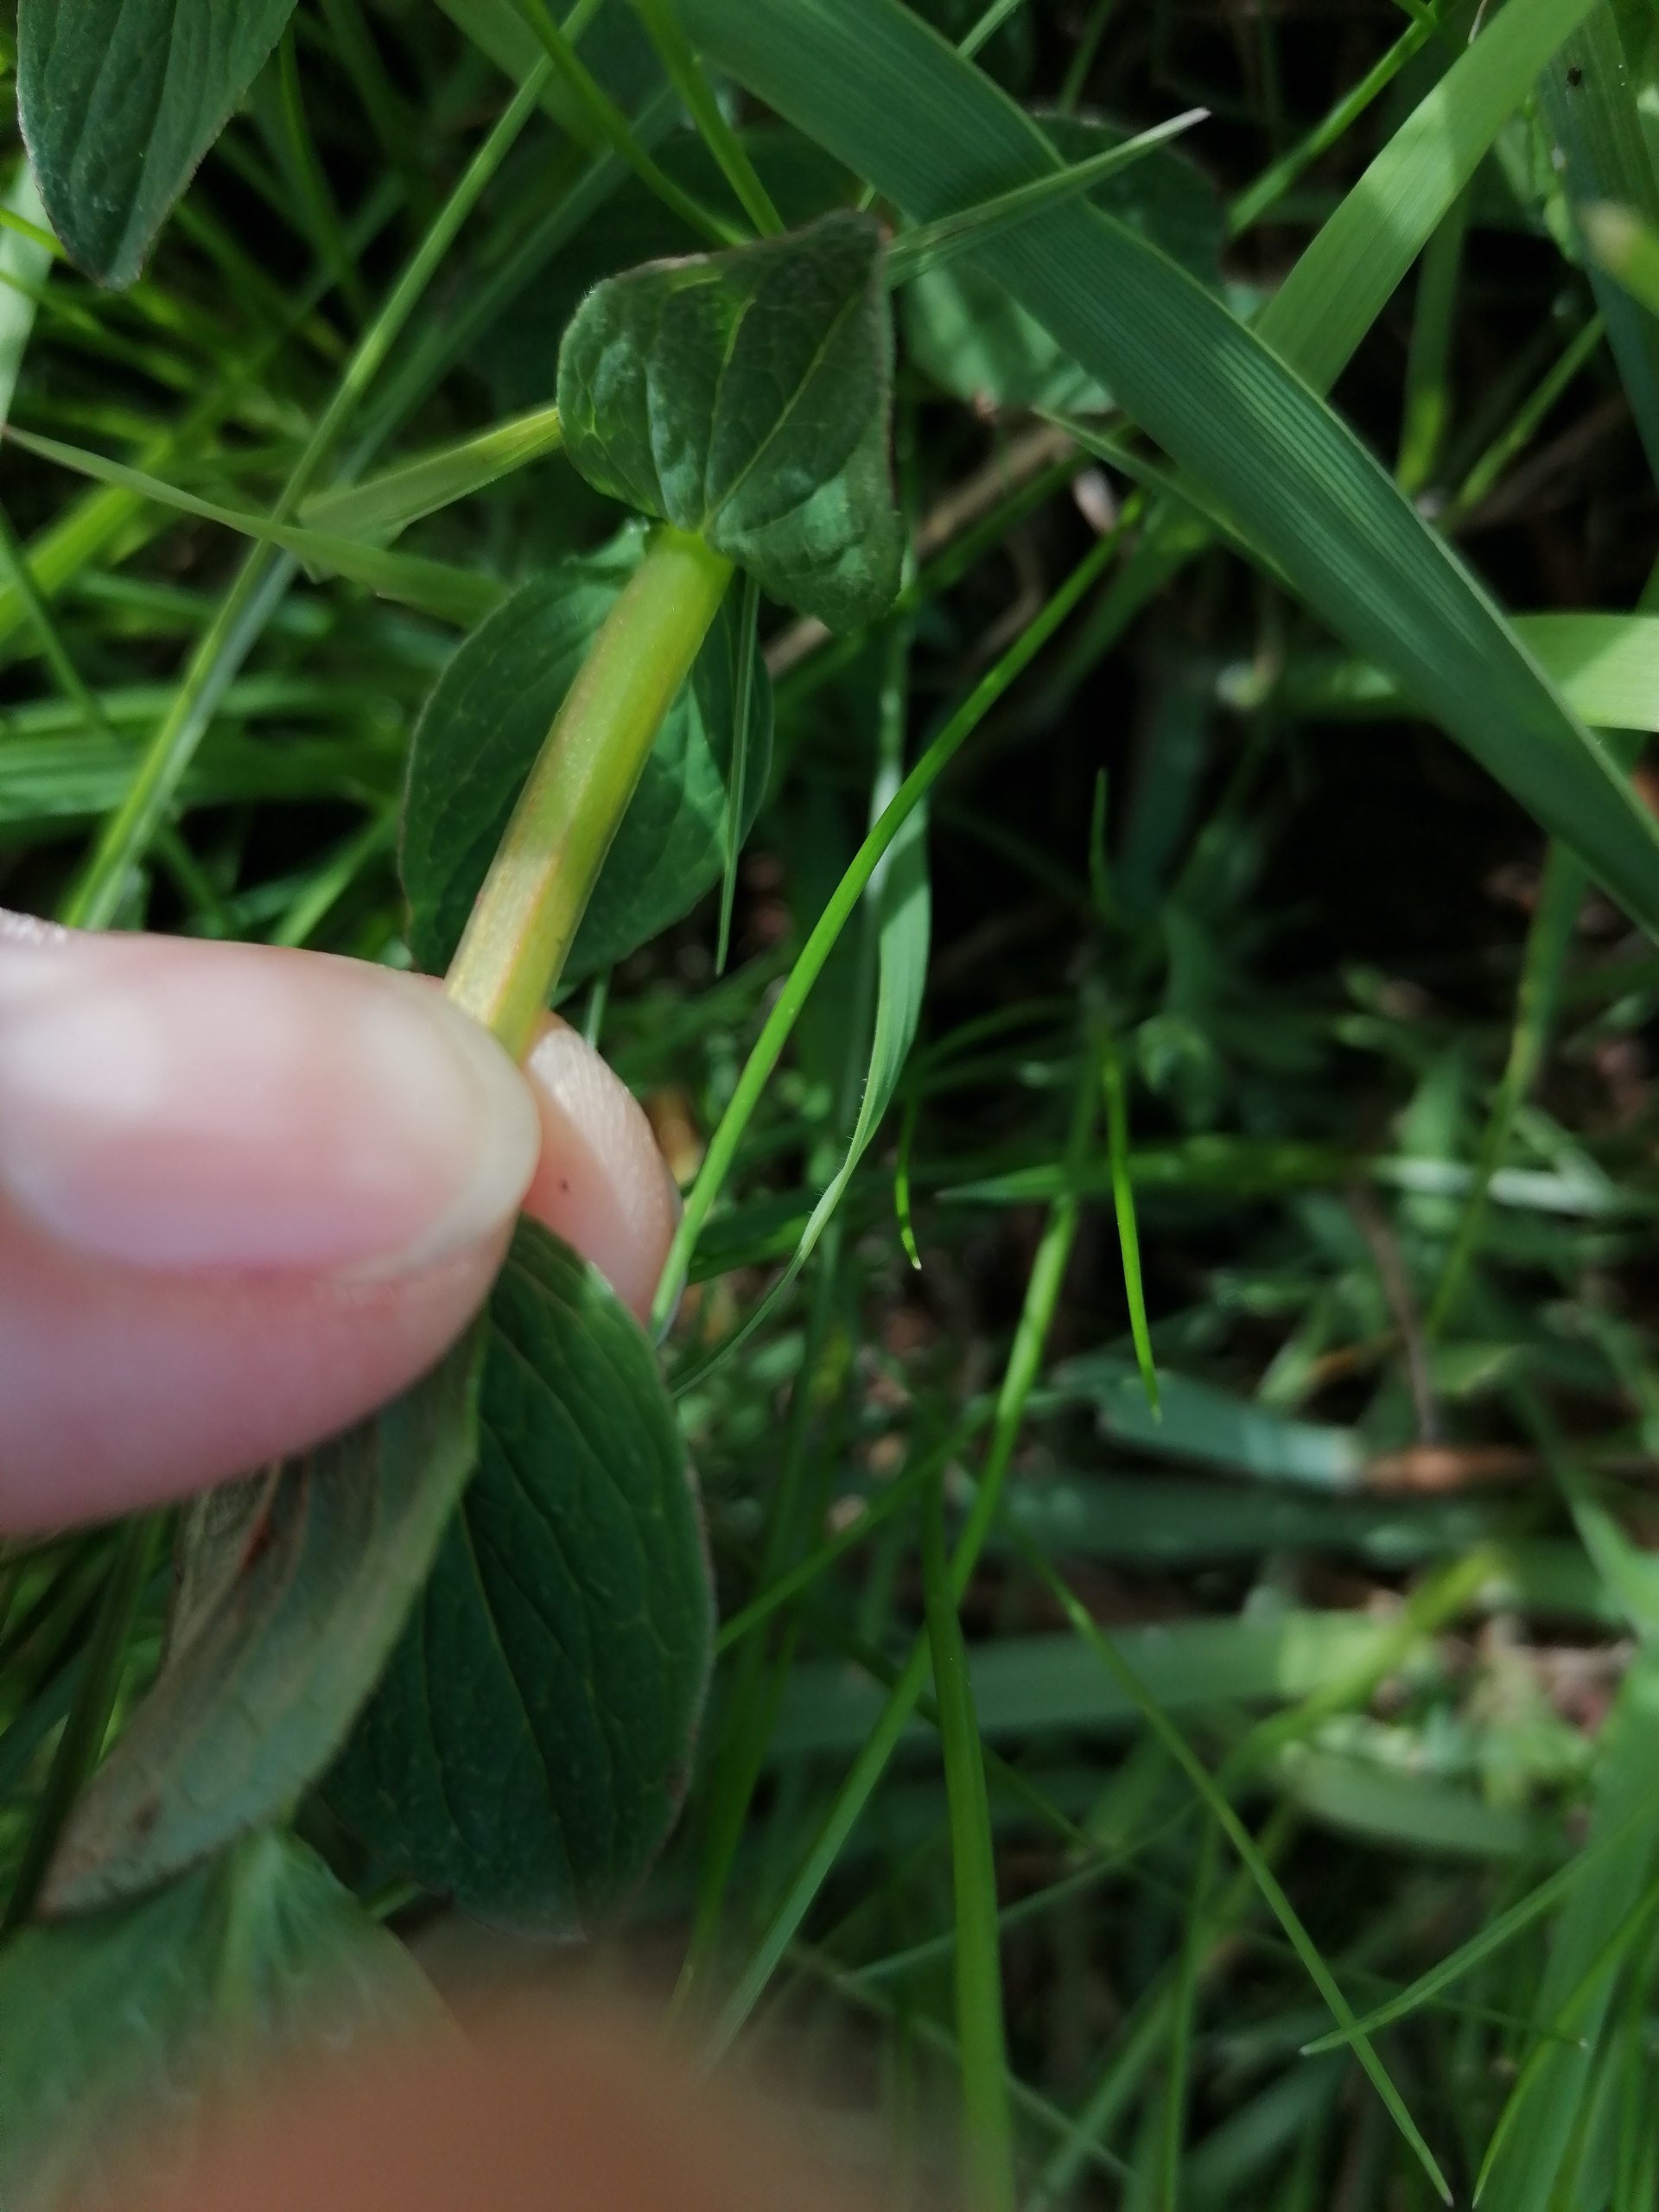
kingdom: Plantae
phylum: Tracheophyta
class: Magnoliopsida
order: Malpighiales
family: Hypericaceae
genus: Hypericum
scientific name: Hypericum maculatum
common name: Kantet perikon
